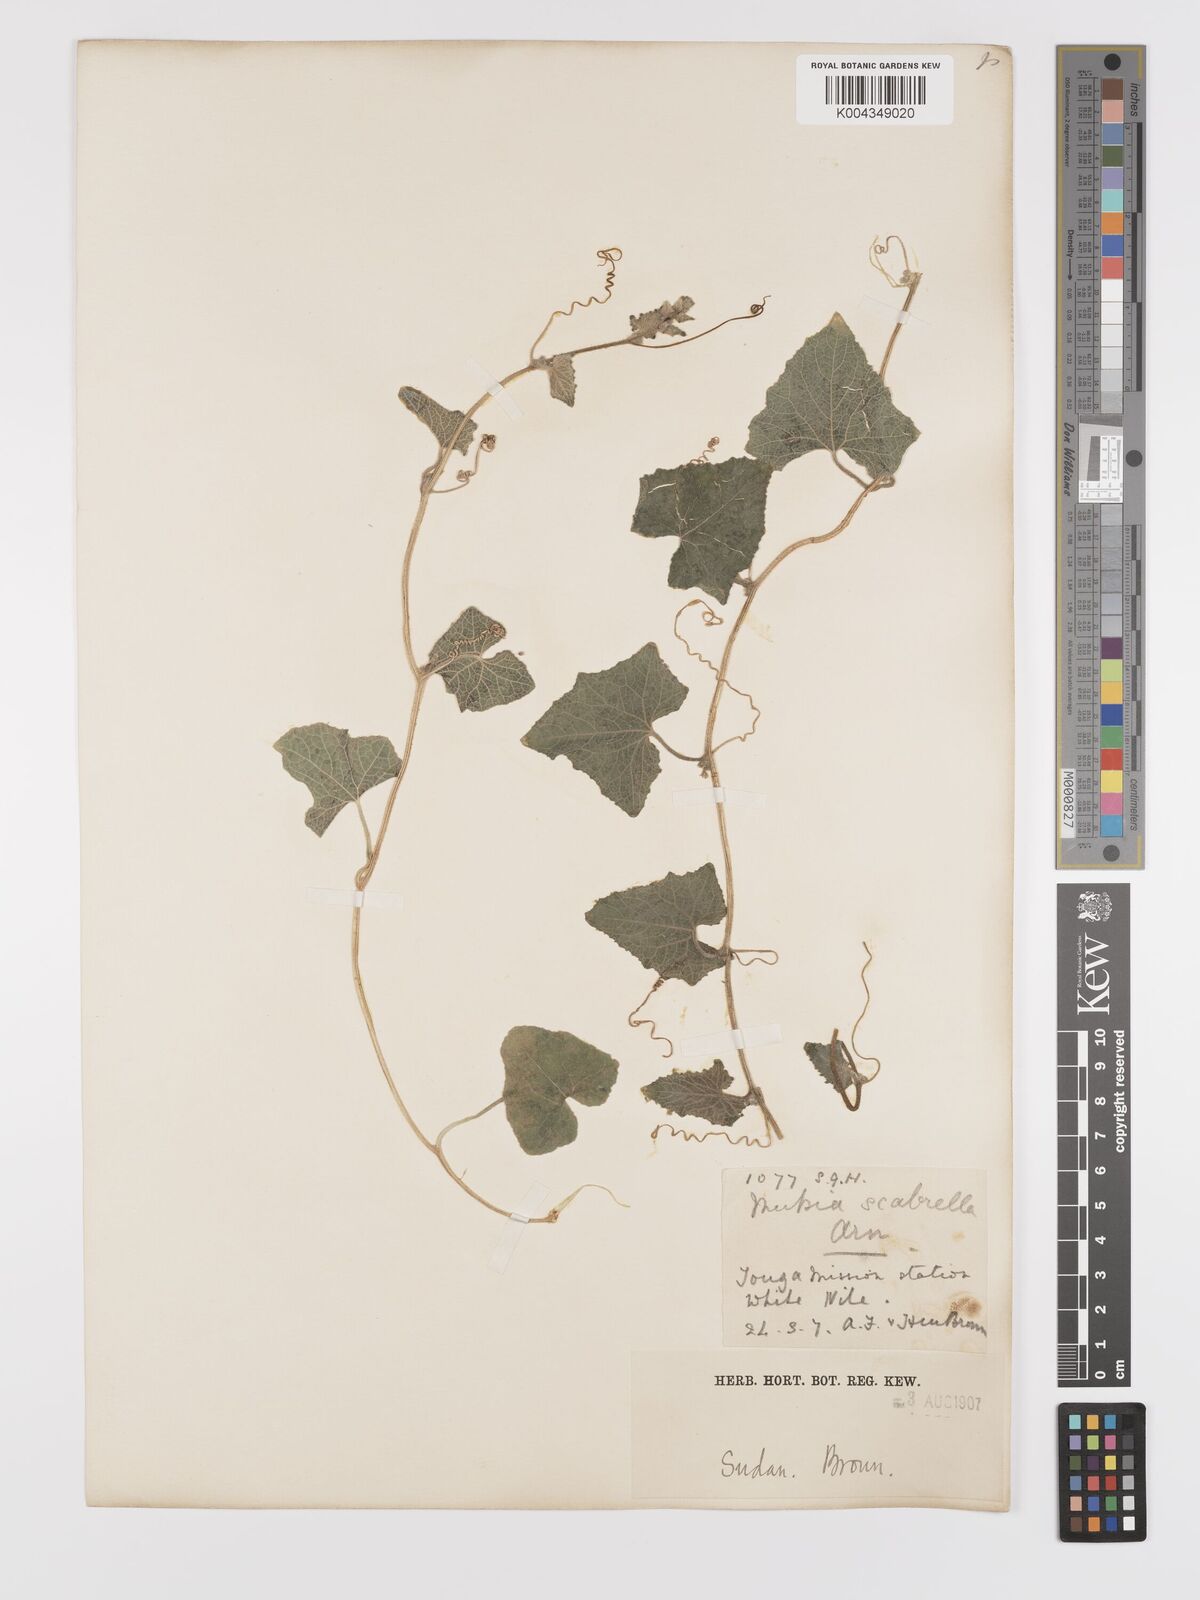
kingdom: Plantae
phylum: Tracheophyta
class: Magnoliopsida
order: Cucurbitales
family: Cucurbitaceae
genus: Cucumis
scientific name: Cucumis maderaspatanus
